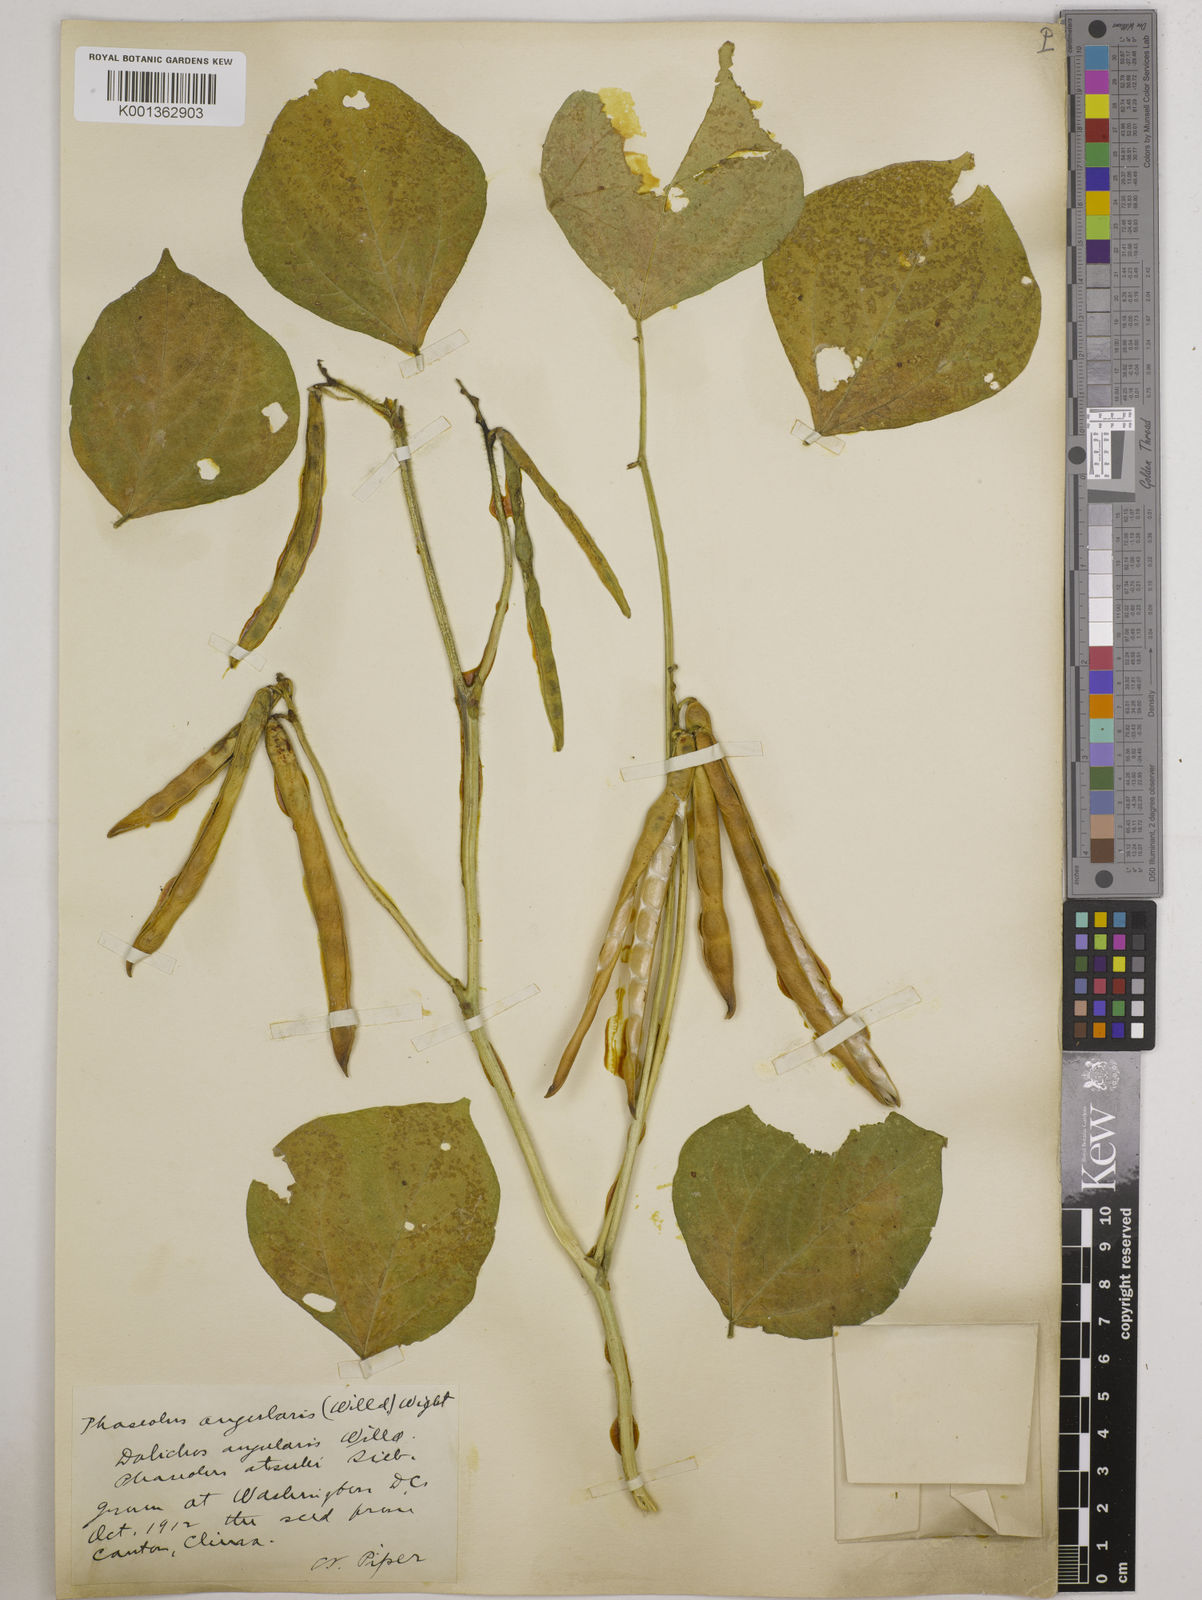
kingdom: Plantae
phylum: Tracheophyta
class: Magnoliopsida
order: Fabales
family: Fabaceae
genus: Vigna
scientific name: Vigna angularis
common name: Adzuki bean
